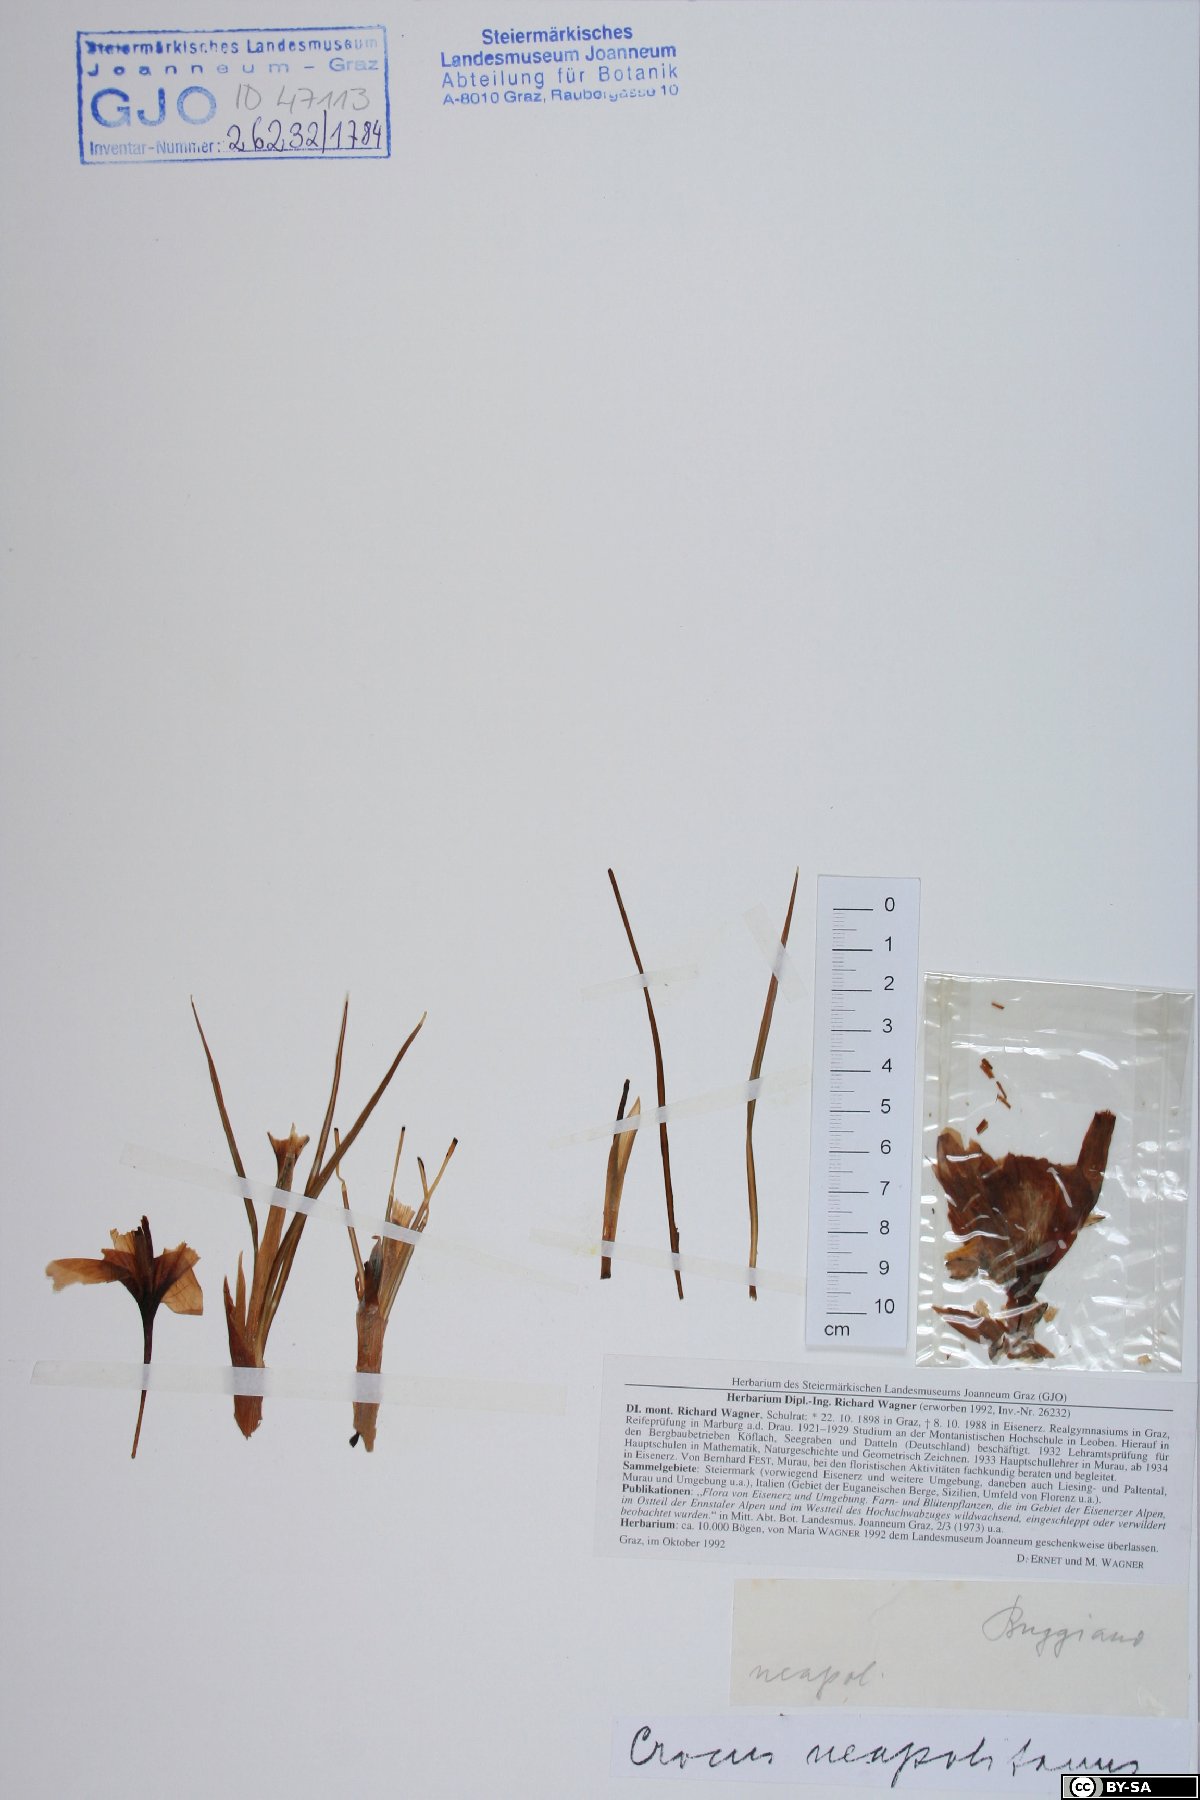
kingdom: Plantae
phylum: Tracheophyta
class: Liliopsida
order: Asparagales
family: Iridaceae
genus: Crocus
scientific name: Crocus vernus
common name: Spring crocus
